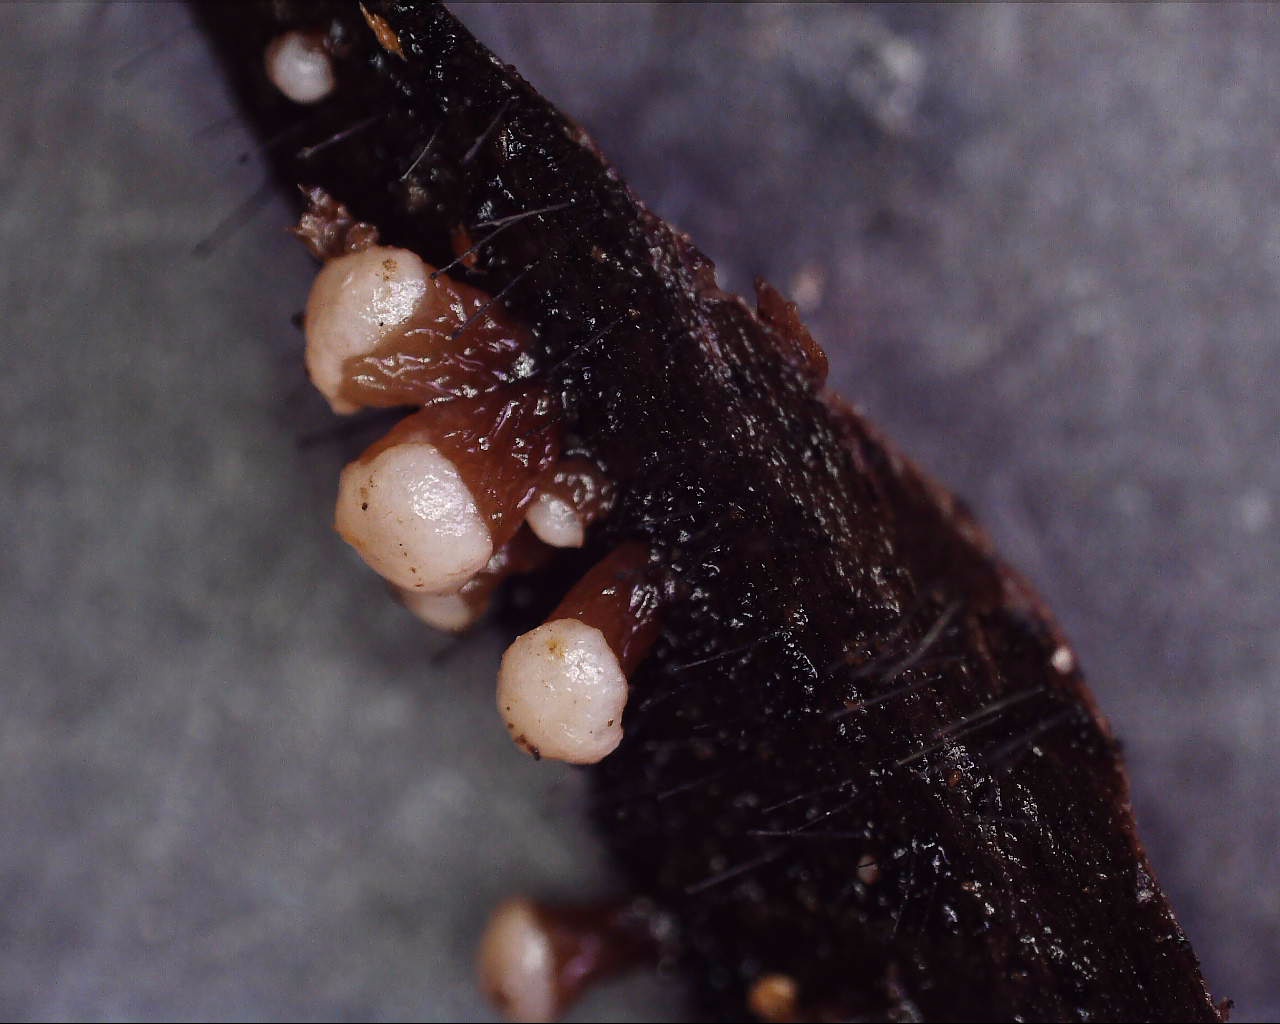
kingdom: Fungi
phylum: Ascomycota
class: Leotiomycetes
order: Helotiales
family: Gelatinodiscaceae
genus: Ascocoryne
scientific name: Ascocoryne albida
